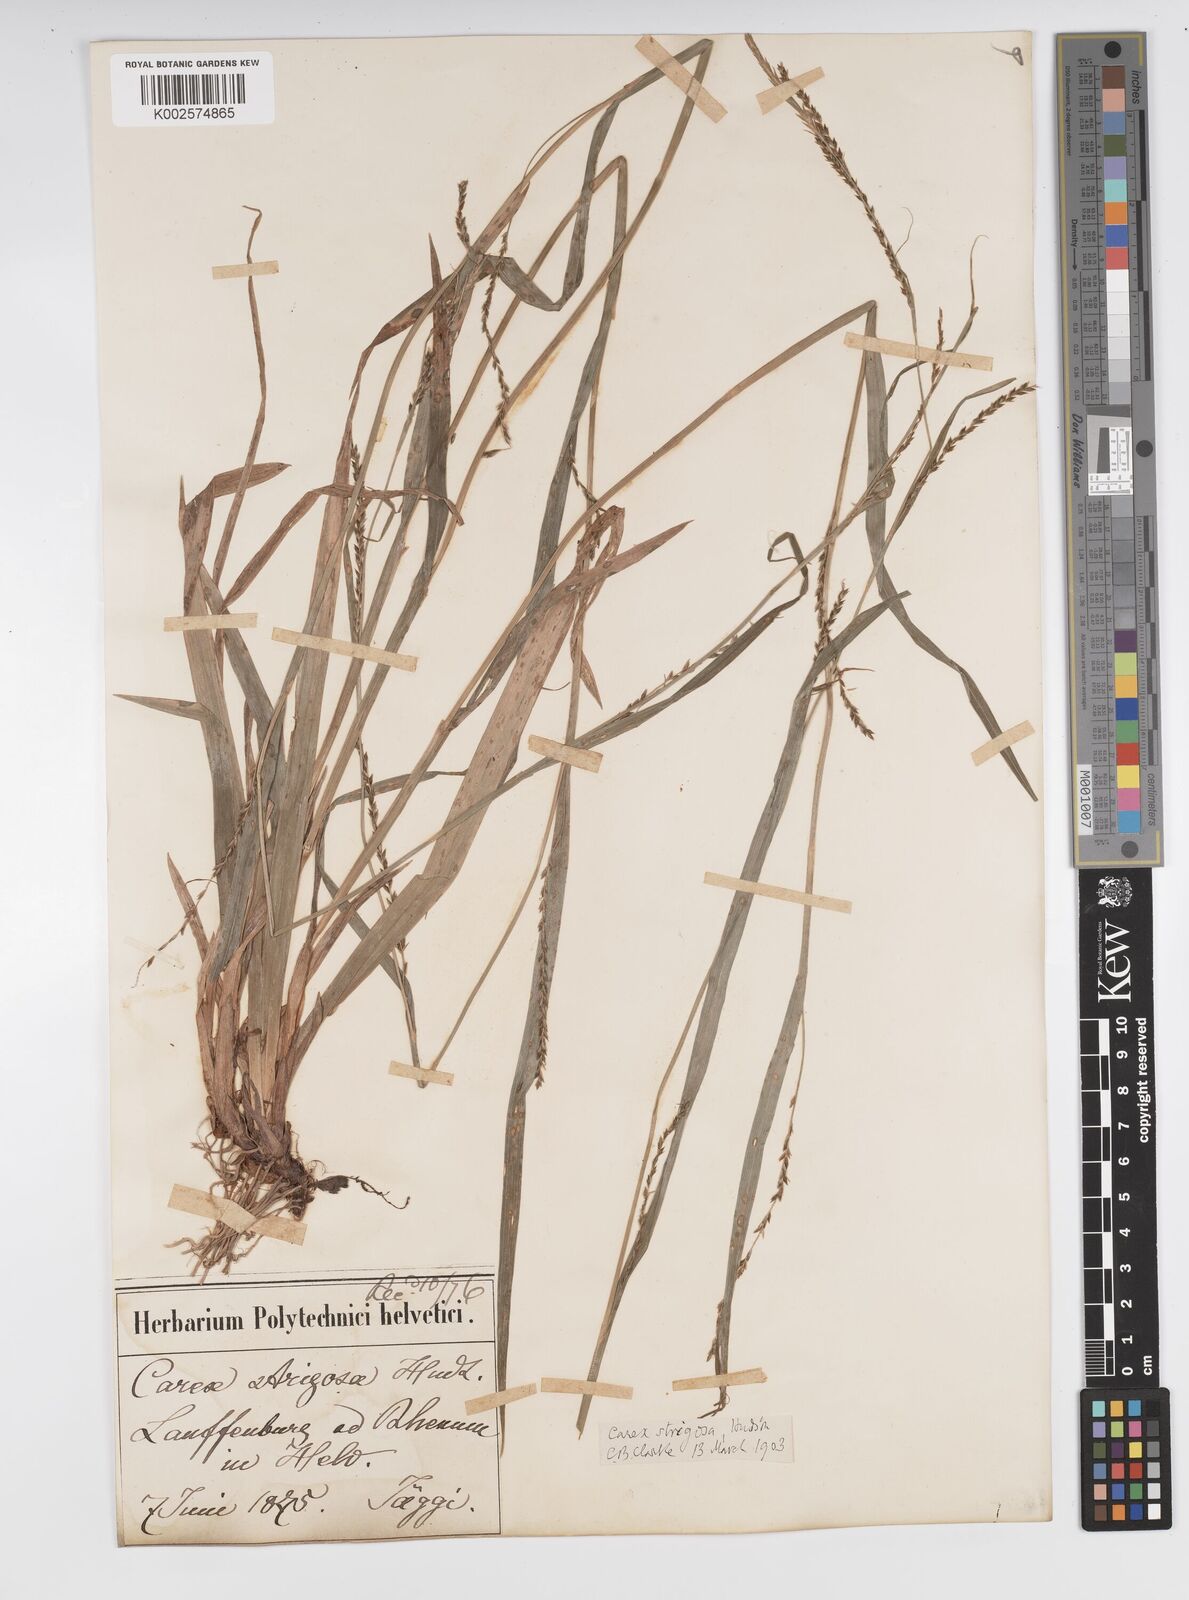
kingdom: Plantae
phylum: Tracheophyta
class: Liliopsida
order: Poales
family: Cyperaceae
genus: Carex
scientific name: Carex strigosa
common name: Thin-spiked wood-sedge
